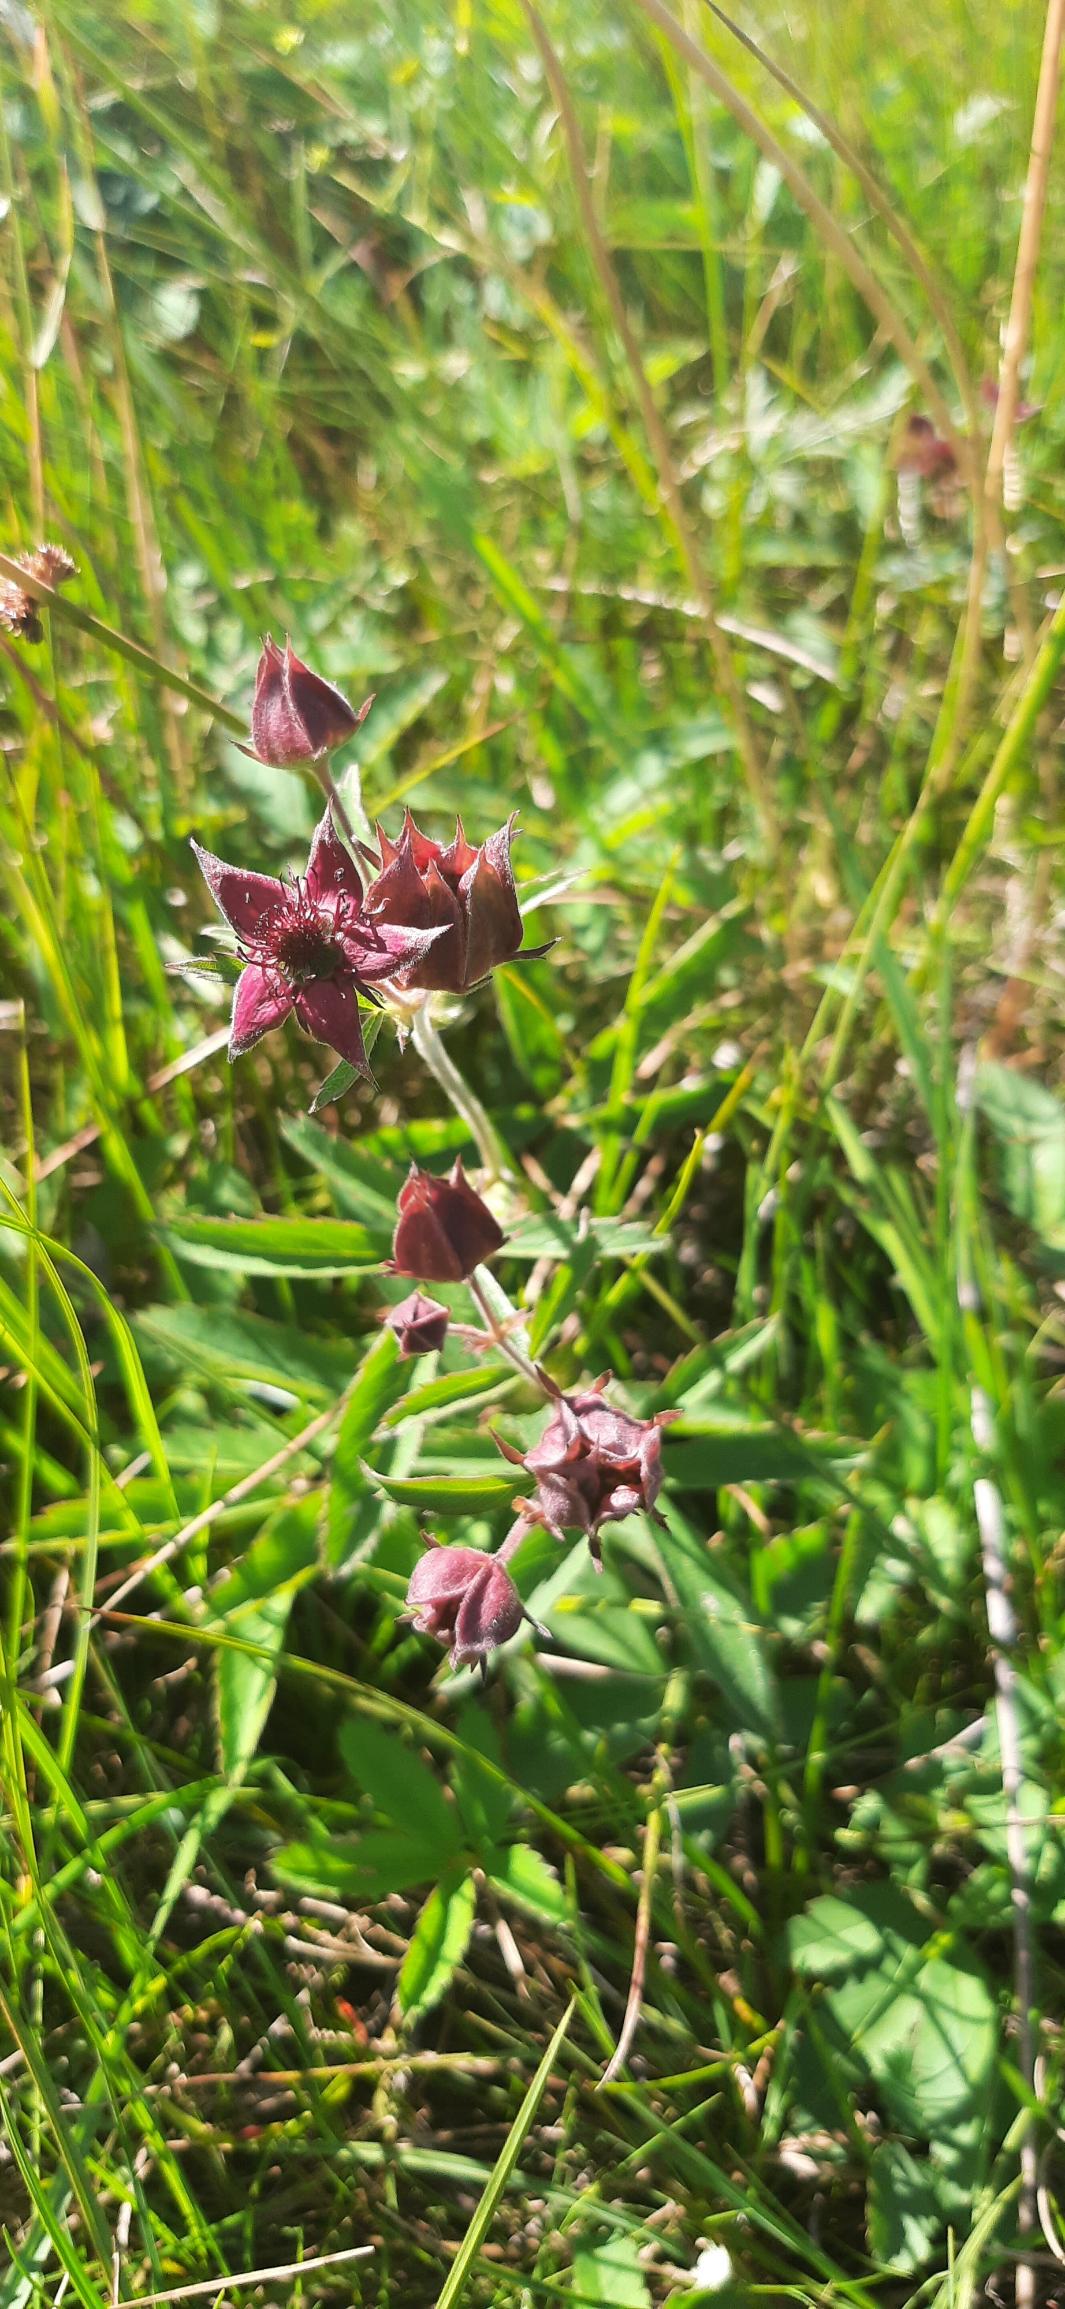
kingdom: Plantae
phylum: Tracheophyta
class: Magnoliopsida
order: Rosales
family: Rosaceae
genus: Comarum
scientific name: Comarum palustre
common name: Kragefod
